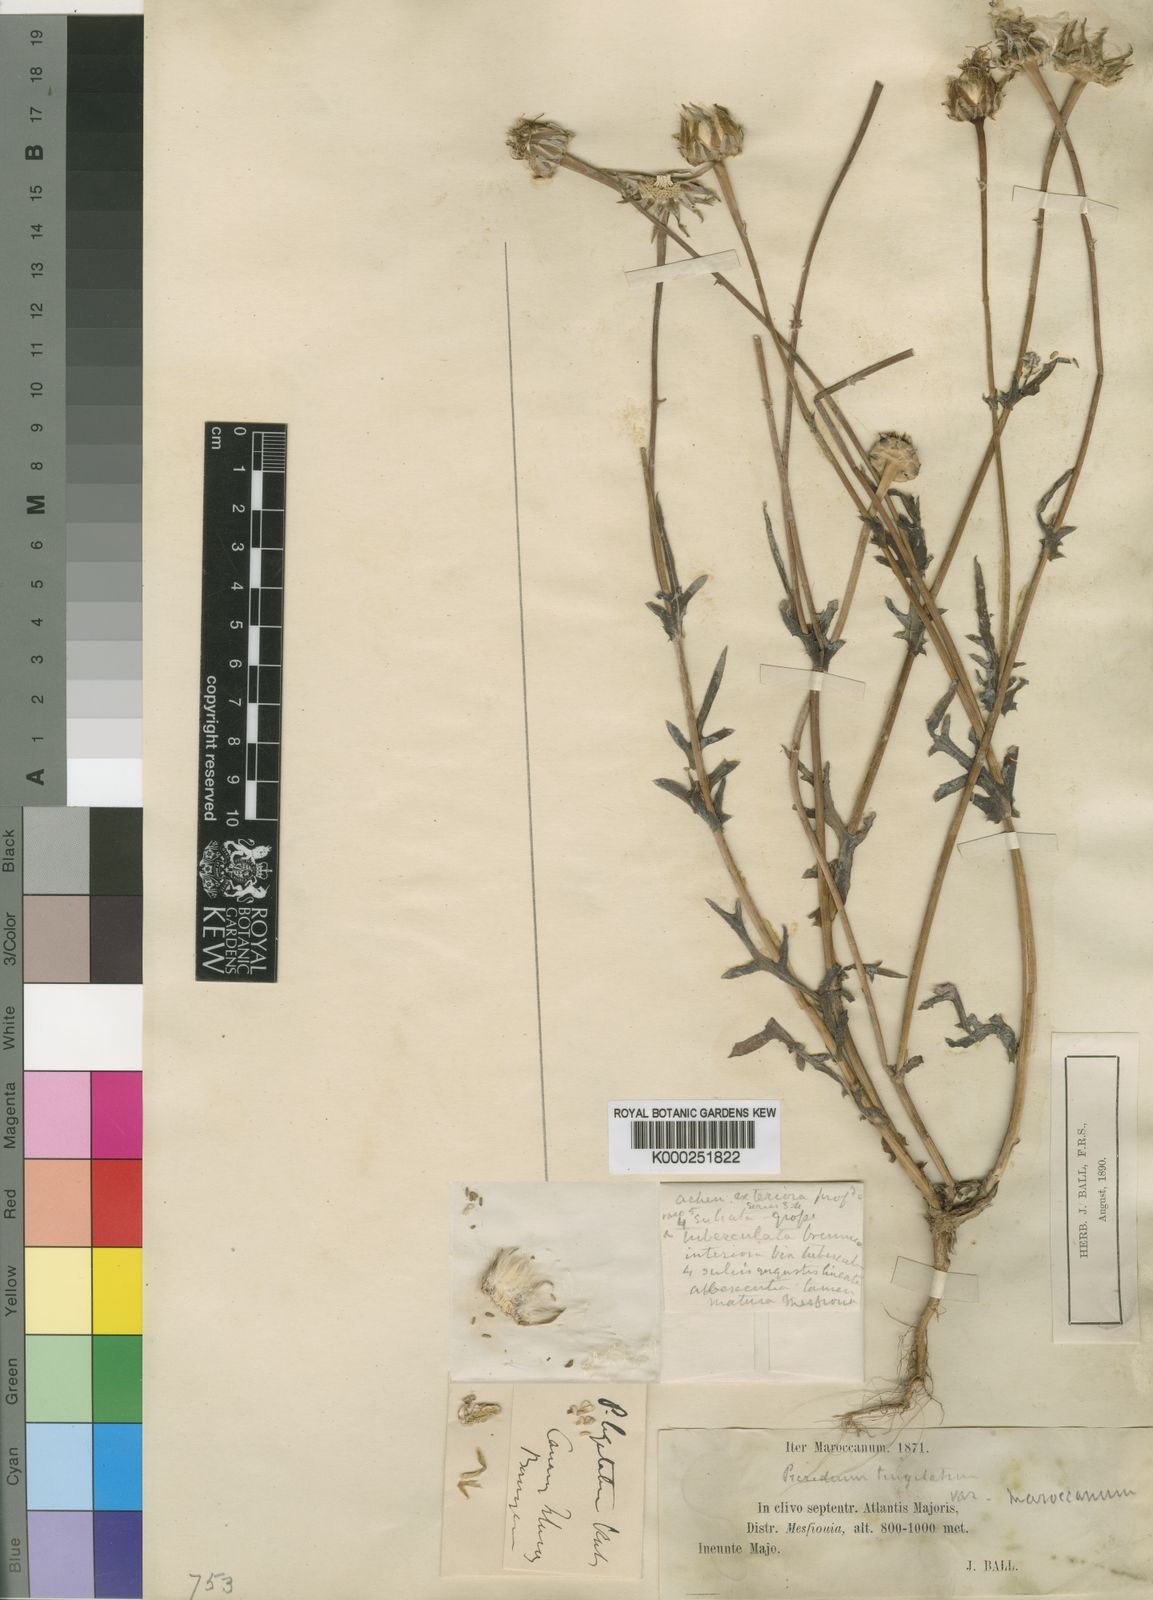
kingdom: Plantae
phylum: Tracheophyta
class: Magnoliopsida
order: Asterales
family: Asteraceae
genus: Reichardia
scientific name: Reichardia
